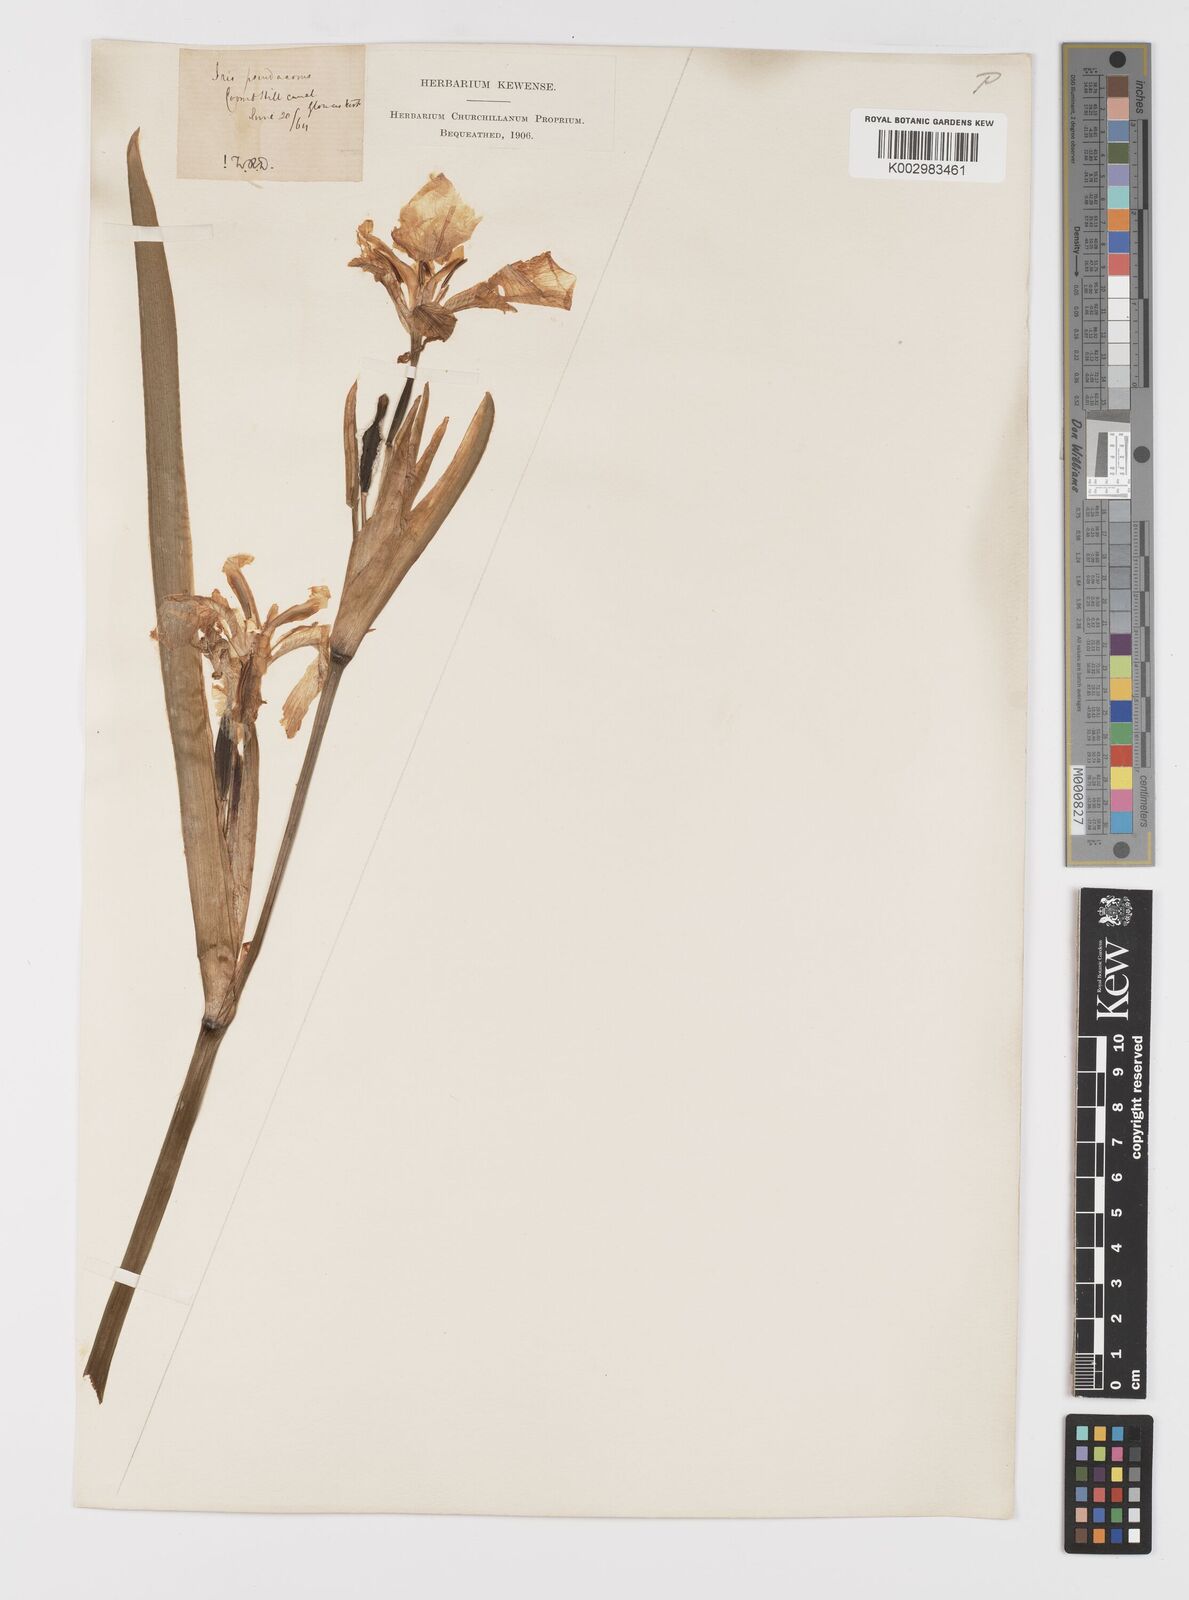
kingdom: Plantae
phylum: Tracheophyta
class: Liliopsida
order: Asparagales
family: Iridaceae
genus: Iris
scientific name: Iris pseudacorus
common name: Yellow flag
